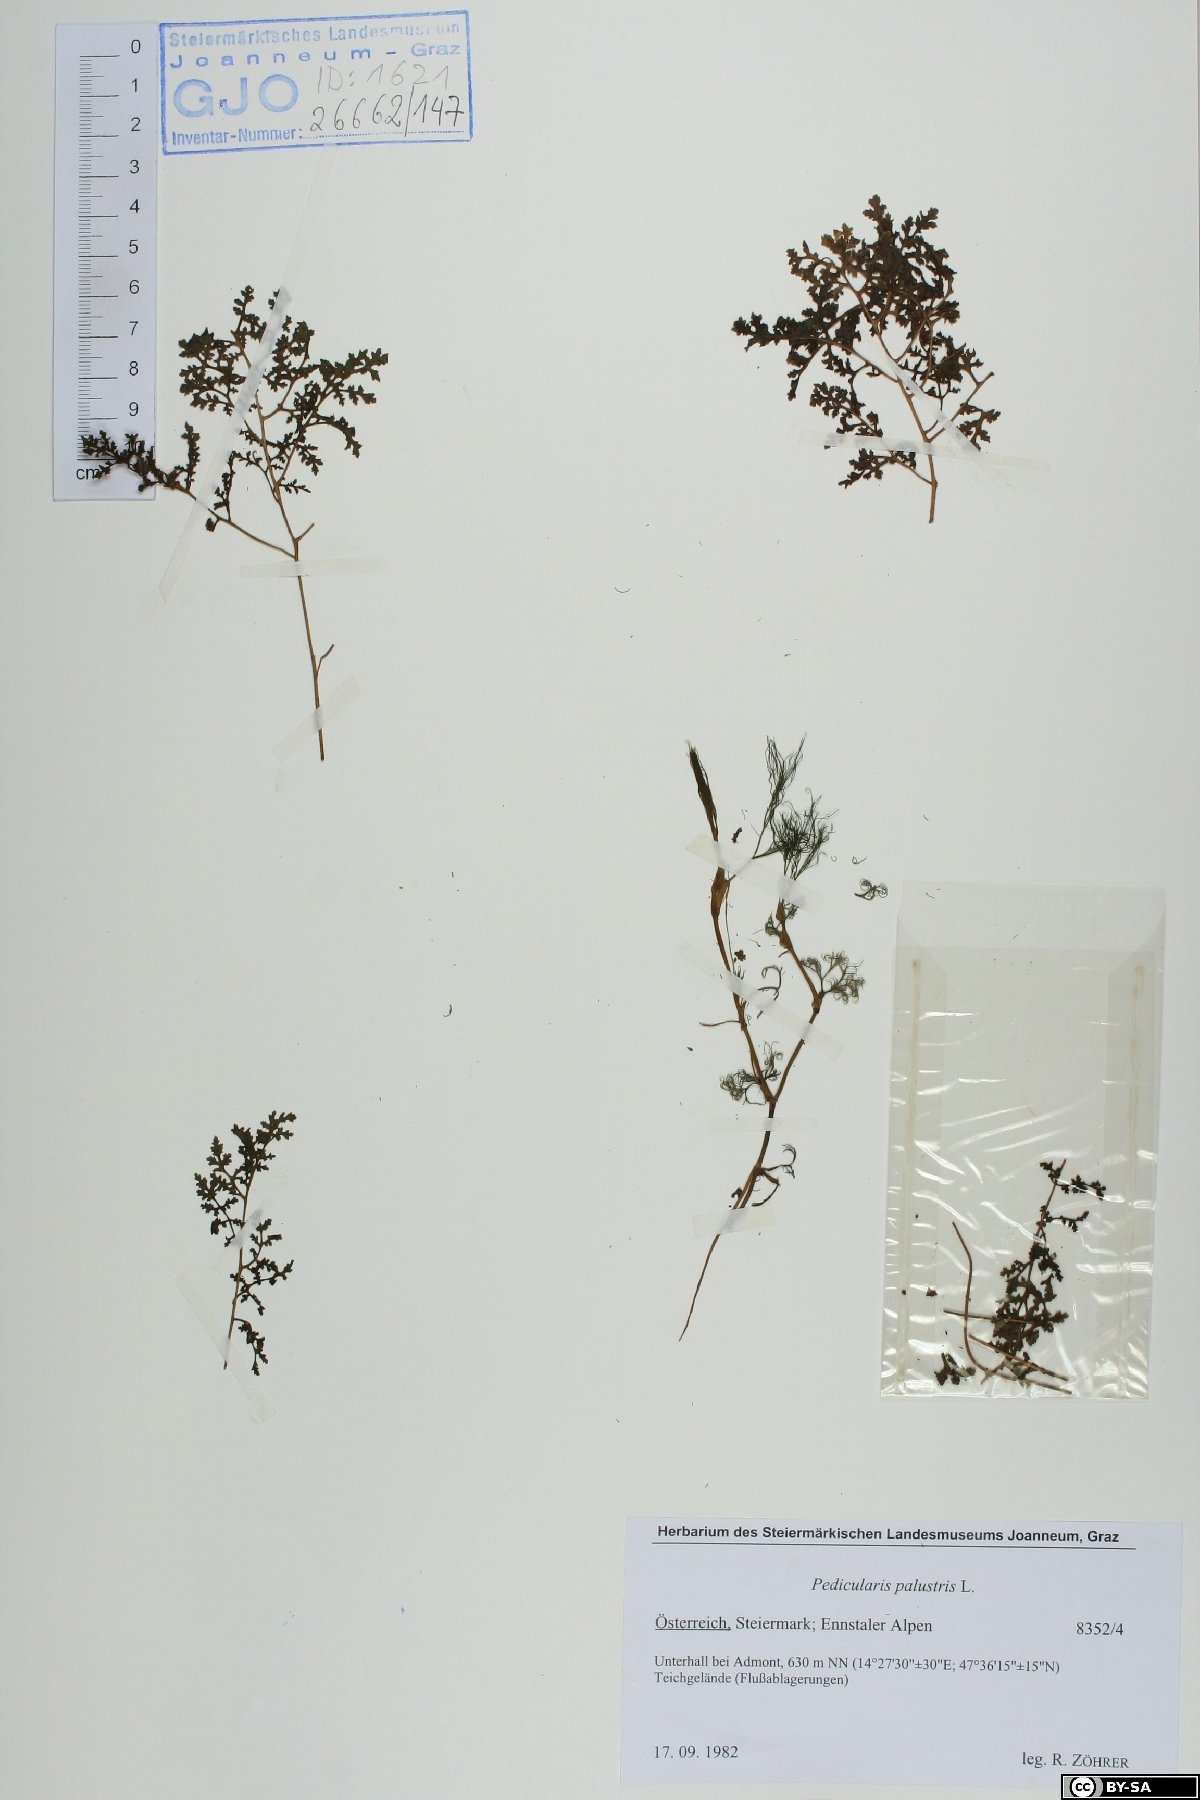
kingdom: Plantae
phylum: Tracheophyta
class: Magnoliopsida
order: Lamiales
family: Orobanchaceae
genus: Pedicularis
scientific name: Pedicularis palustris
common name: Marsh lousewort
